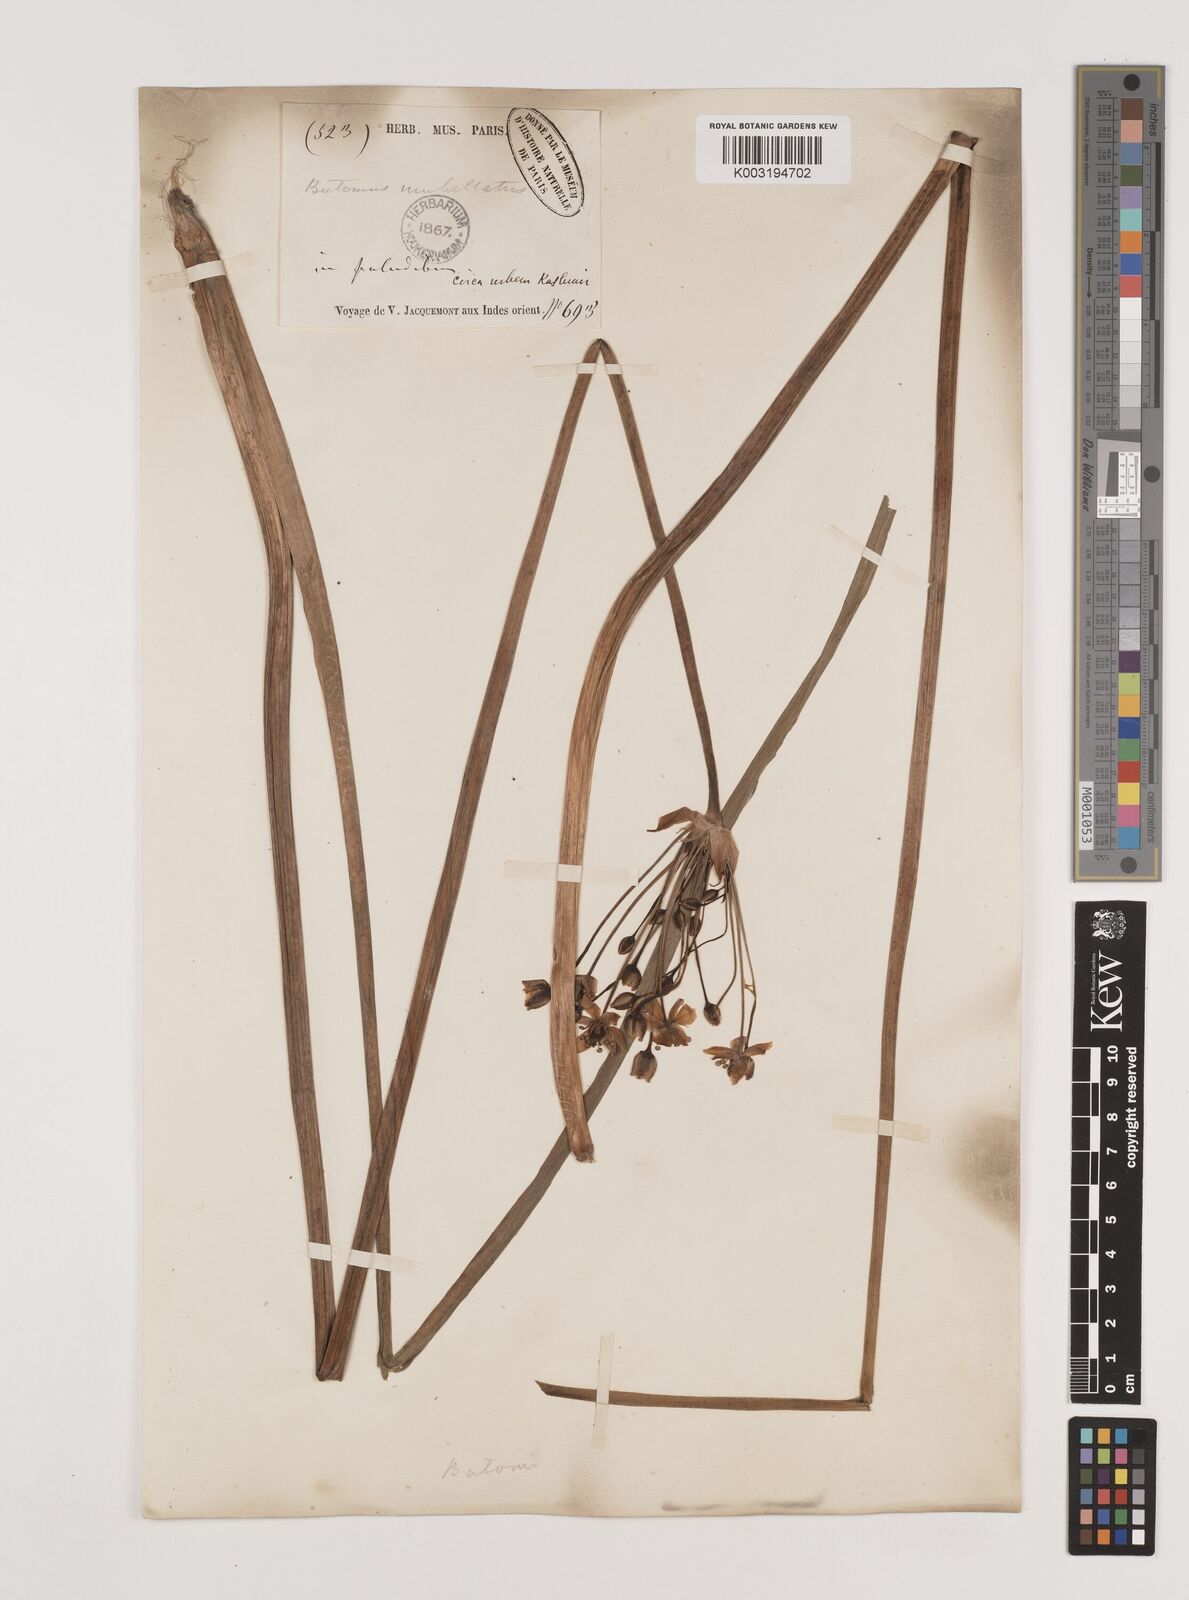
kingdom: Plantae
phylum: Tracheophyta
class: Liliopsida
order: Alismatales
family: Butomaceae
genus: Butomus
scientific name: Butomus umbellatus
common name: Flowering-rush
